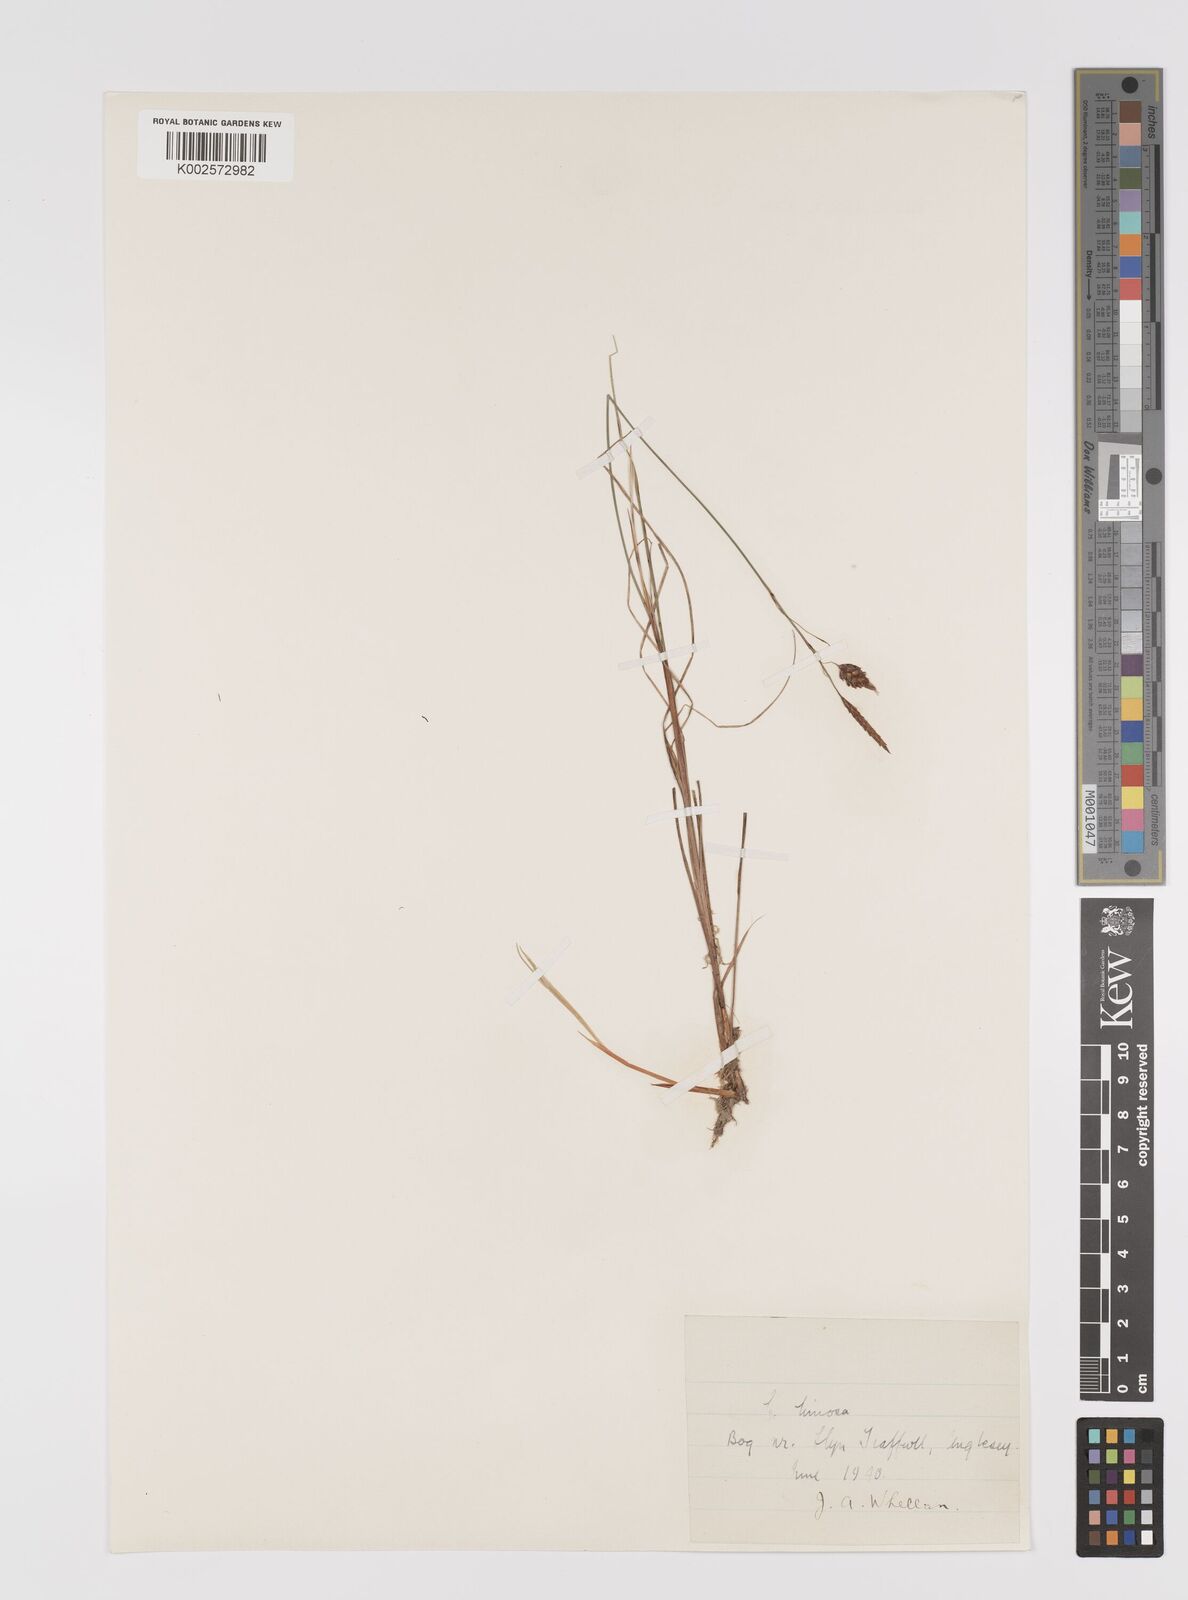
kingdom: Plantae
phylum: Tracheophyta
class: Liliopsida
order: Poales
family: Cyperaceae
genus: Carex
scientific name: Carex limosa
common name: Bog sedge
